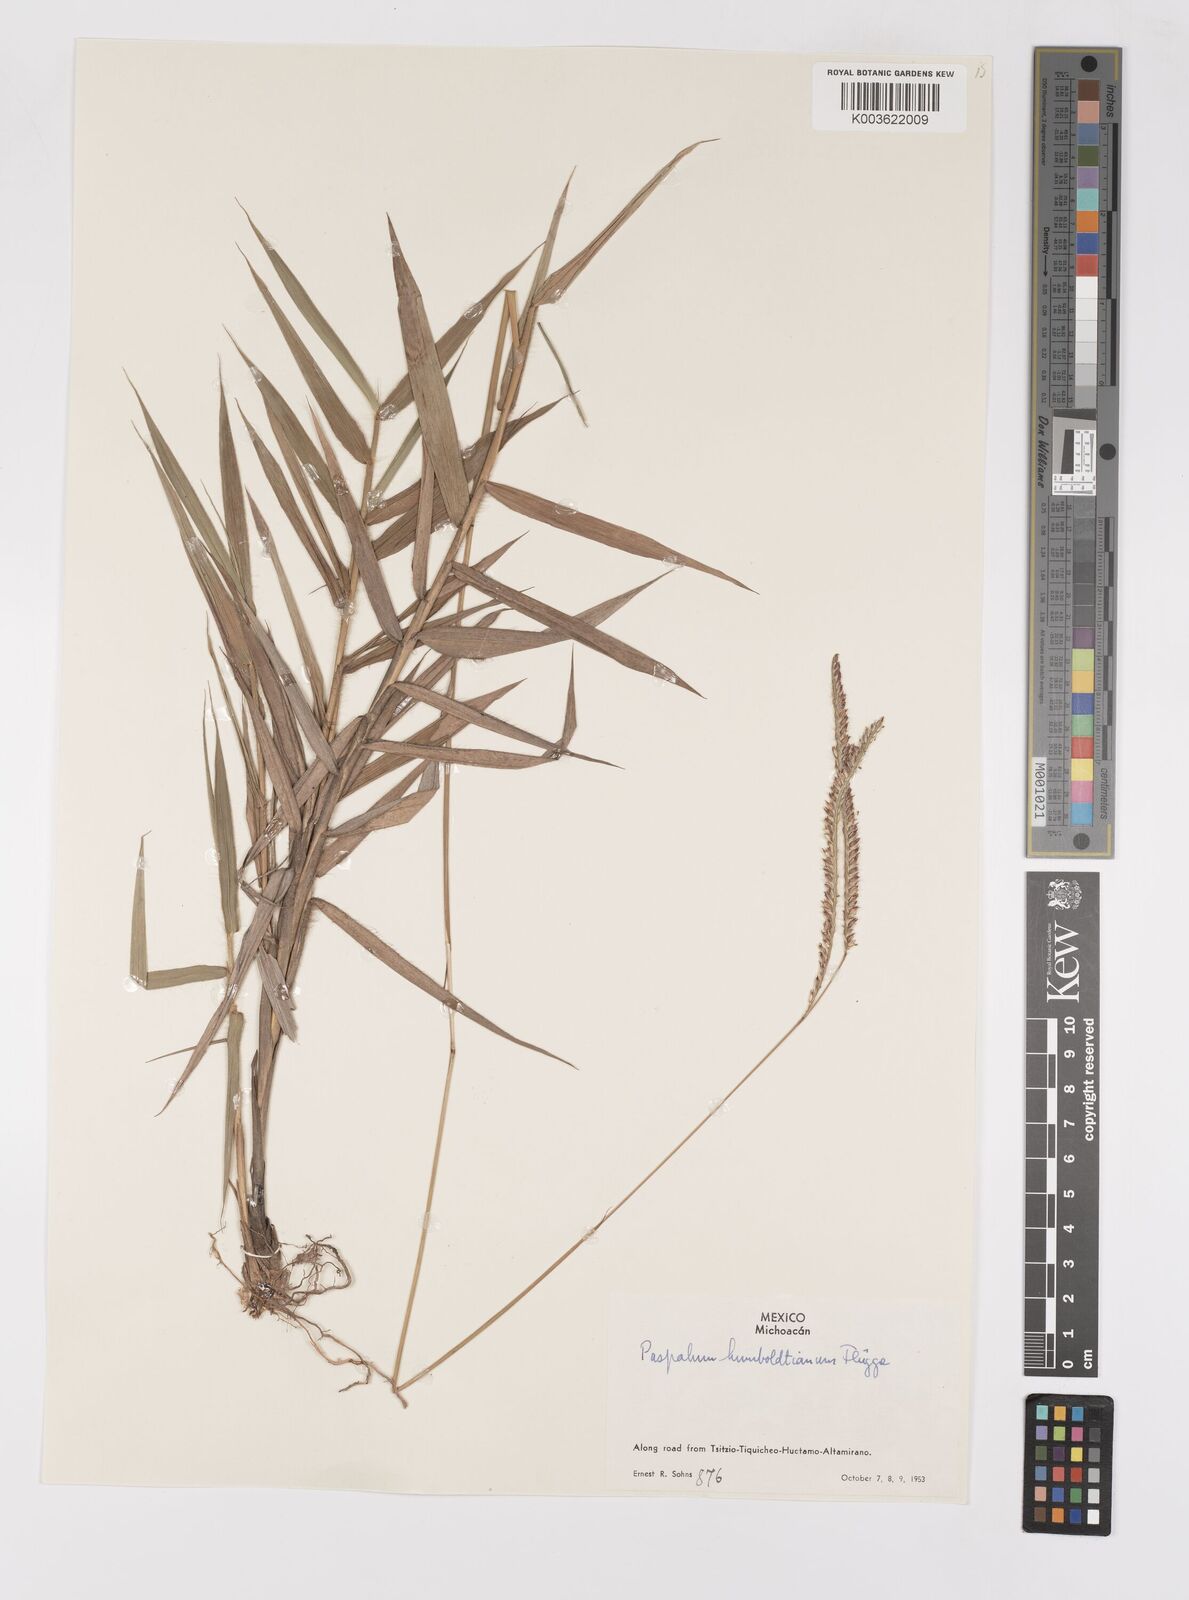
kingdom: Plantae
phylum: Tracheophyta
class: Liliopsida
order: Poales
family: Poaceae
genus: Paspalum
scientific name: Paspalum humboldtianum
